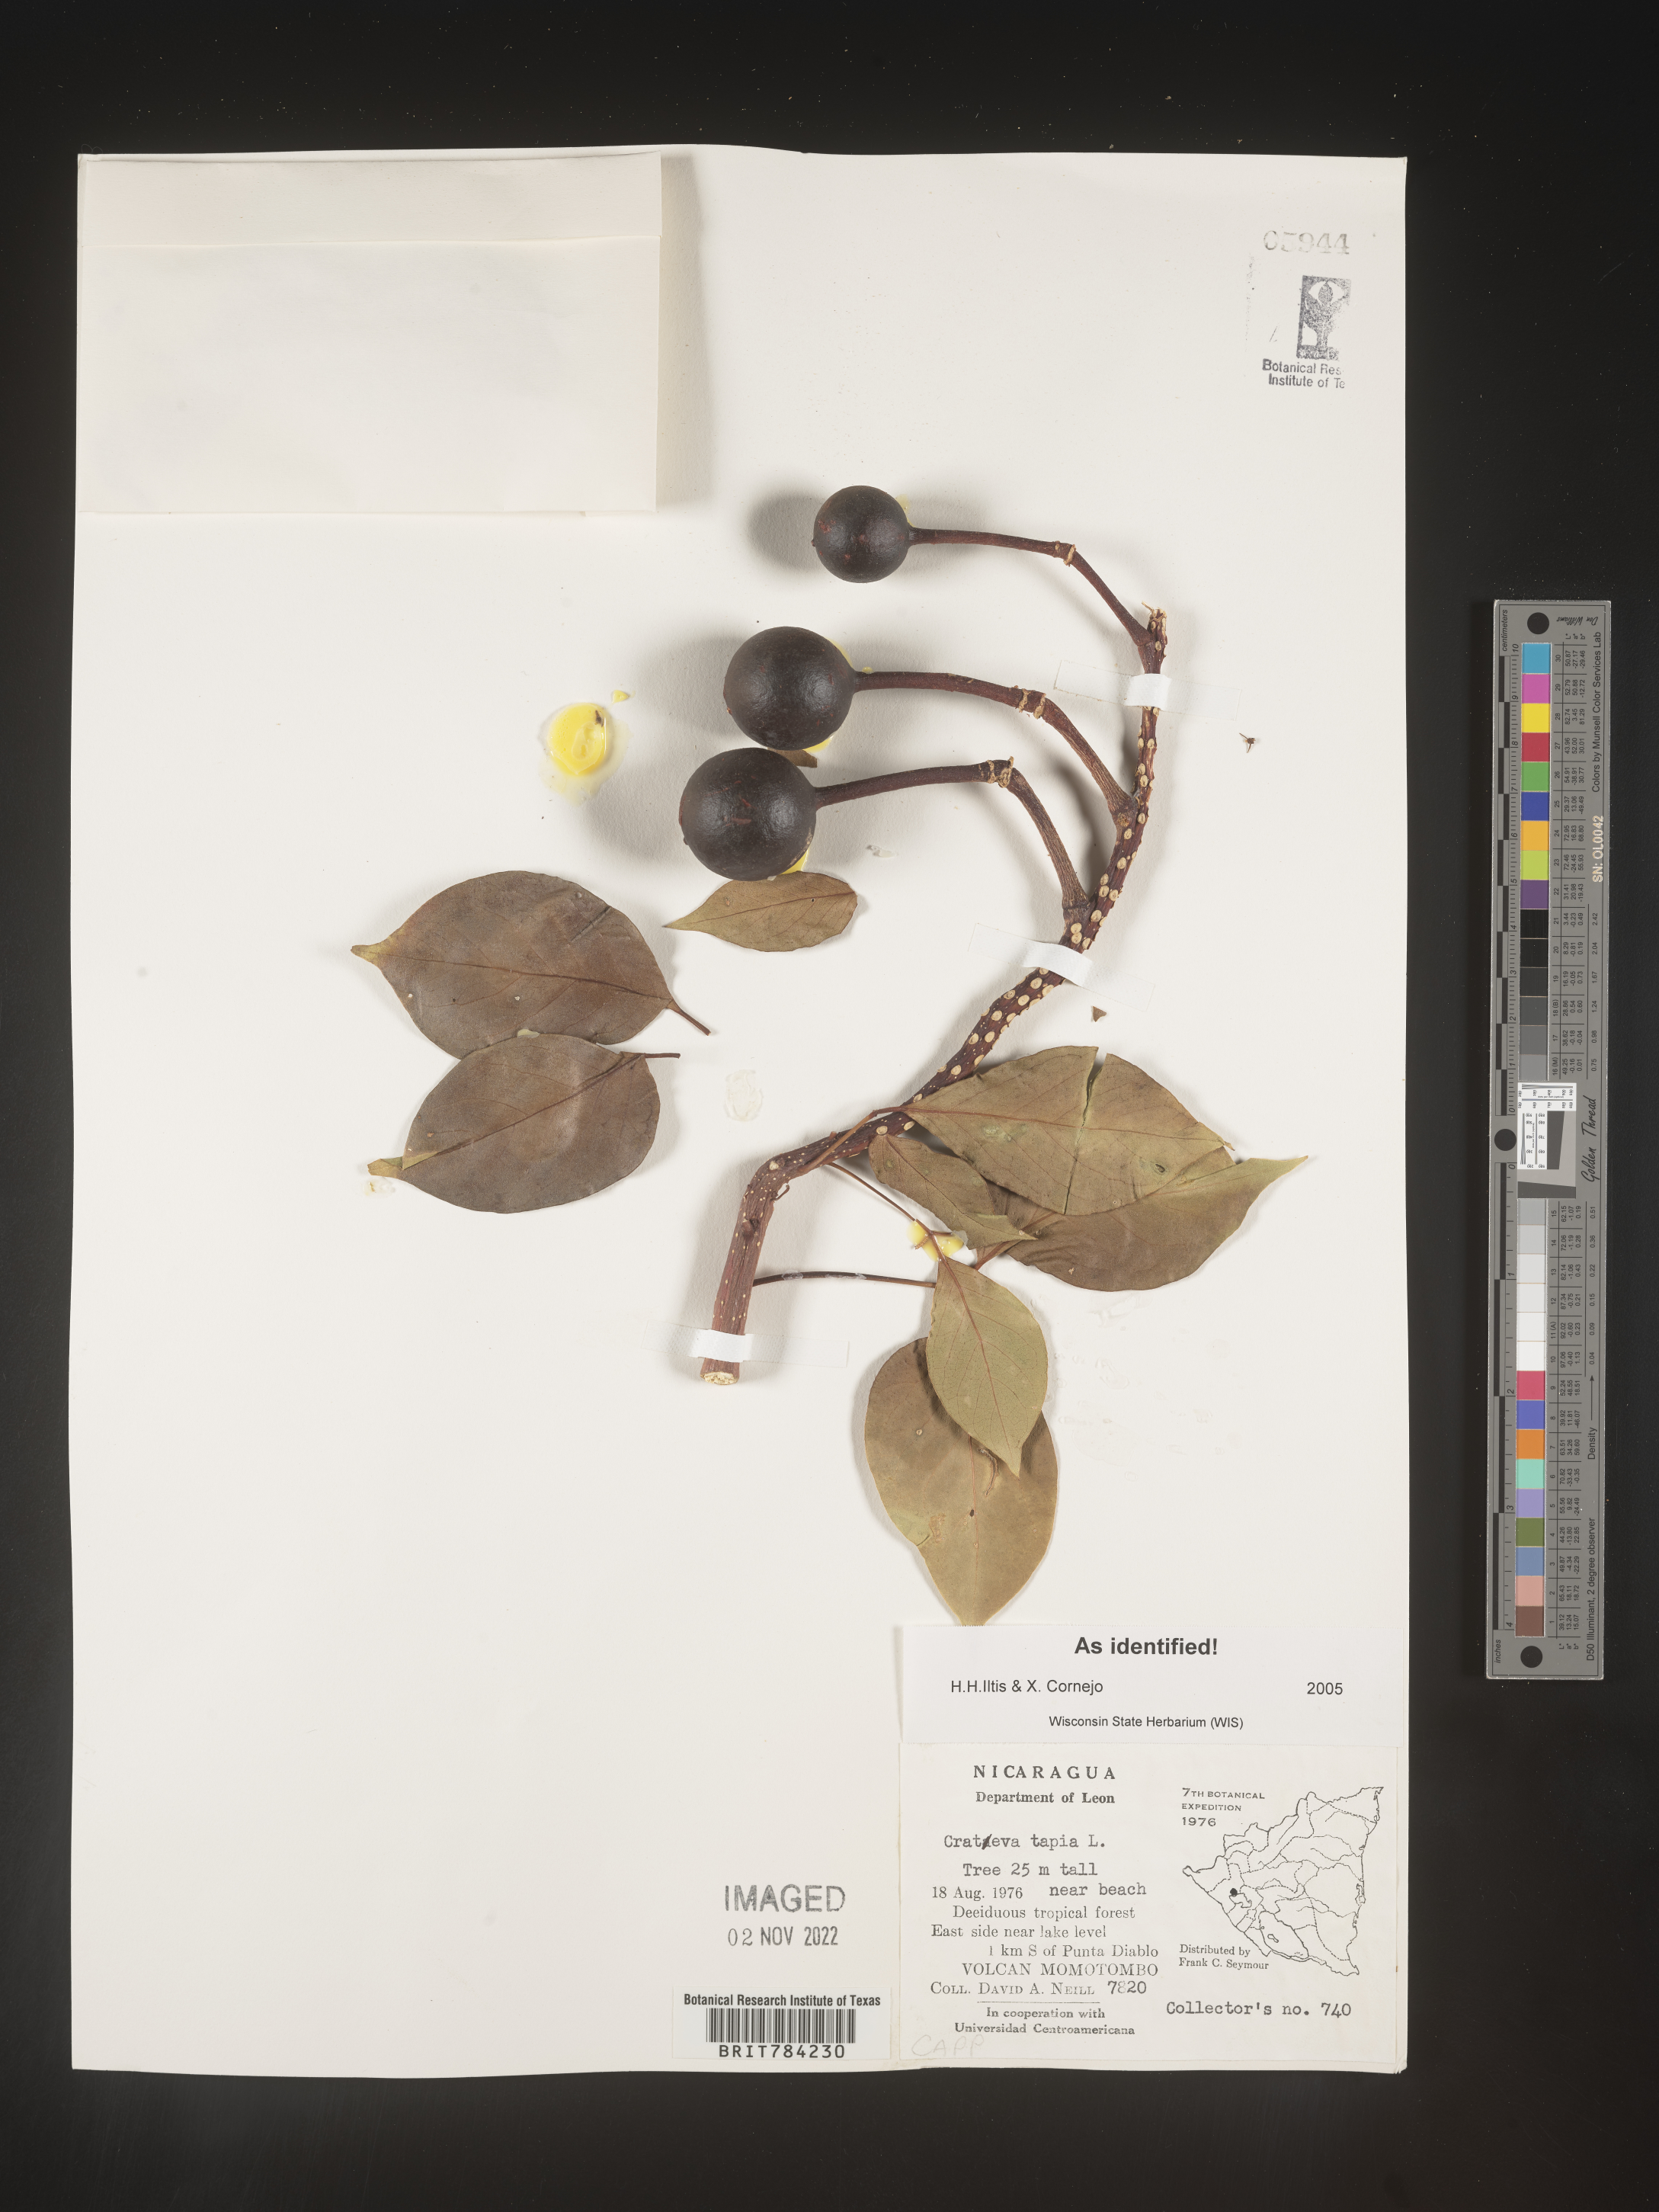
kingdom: Plantae
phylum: Tracheophyta
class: Magnoliopsida
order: Brassicales
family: Capparaceae
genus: Crateva
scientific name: Crateva
